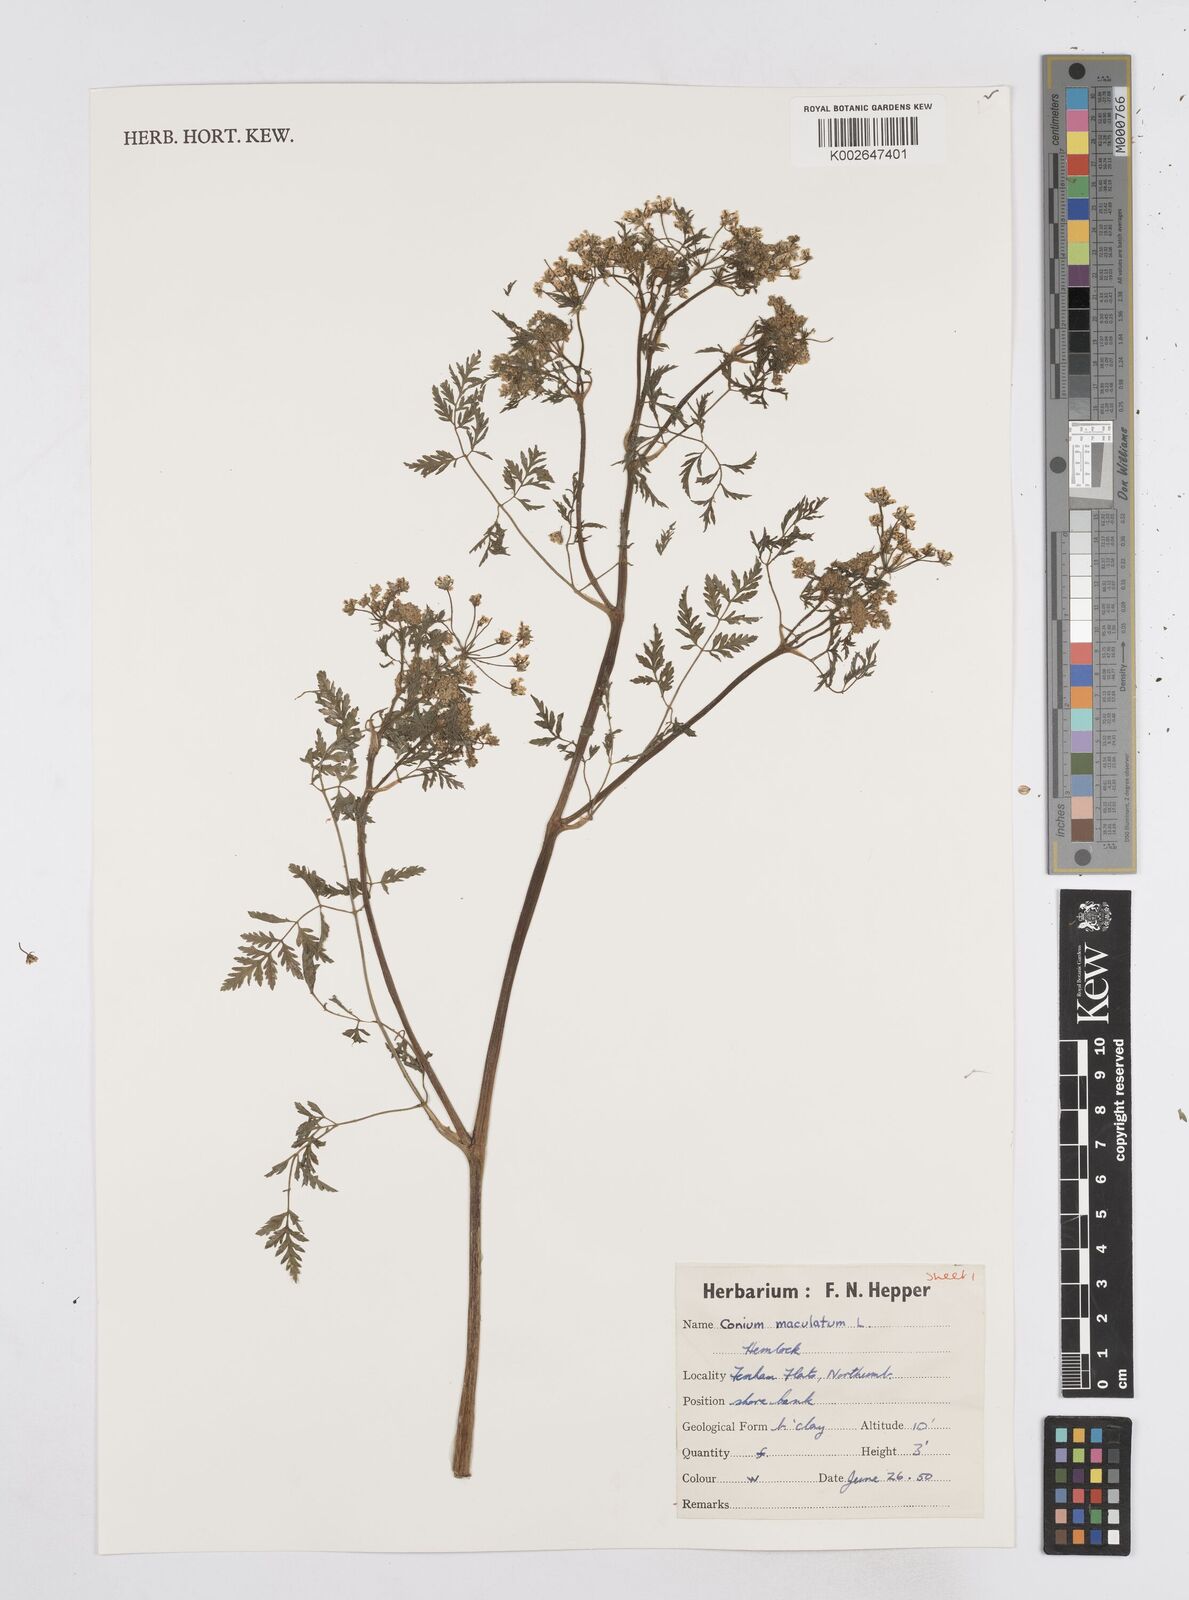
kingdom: Plantae
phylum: Tracheophyta
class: Magnoliopsida
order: Apiales
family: Apiaceae
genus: Conium
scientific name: Conium maculatum
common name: Hemlock
